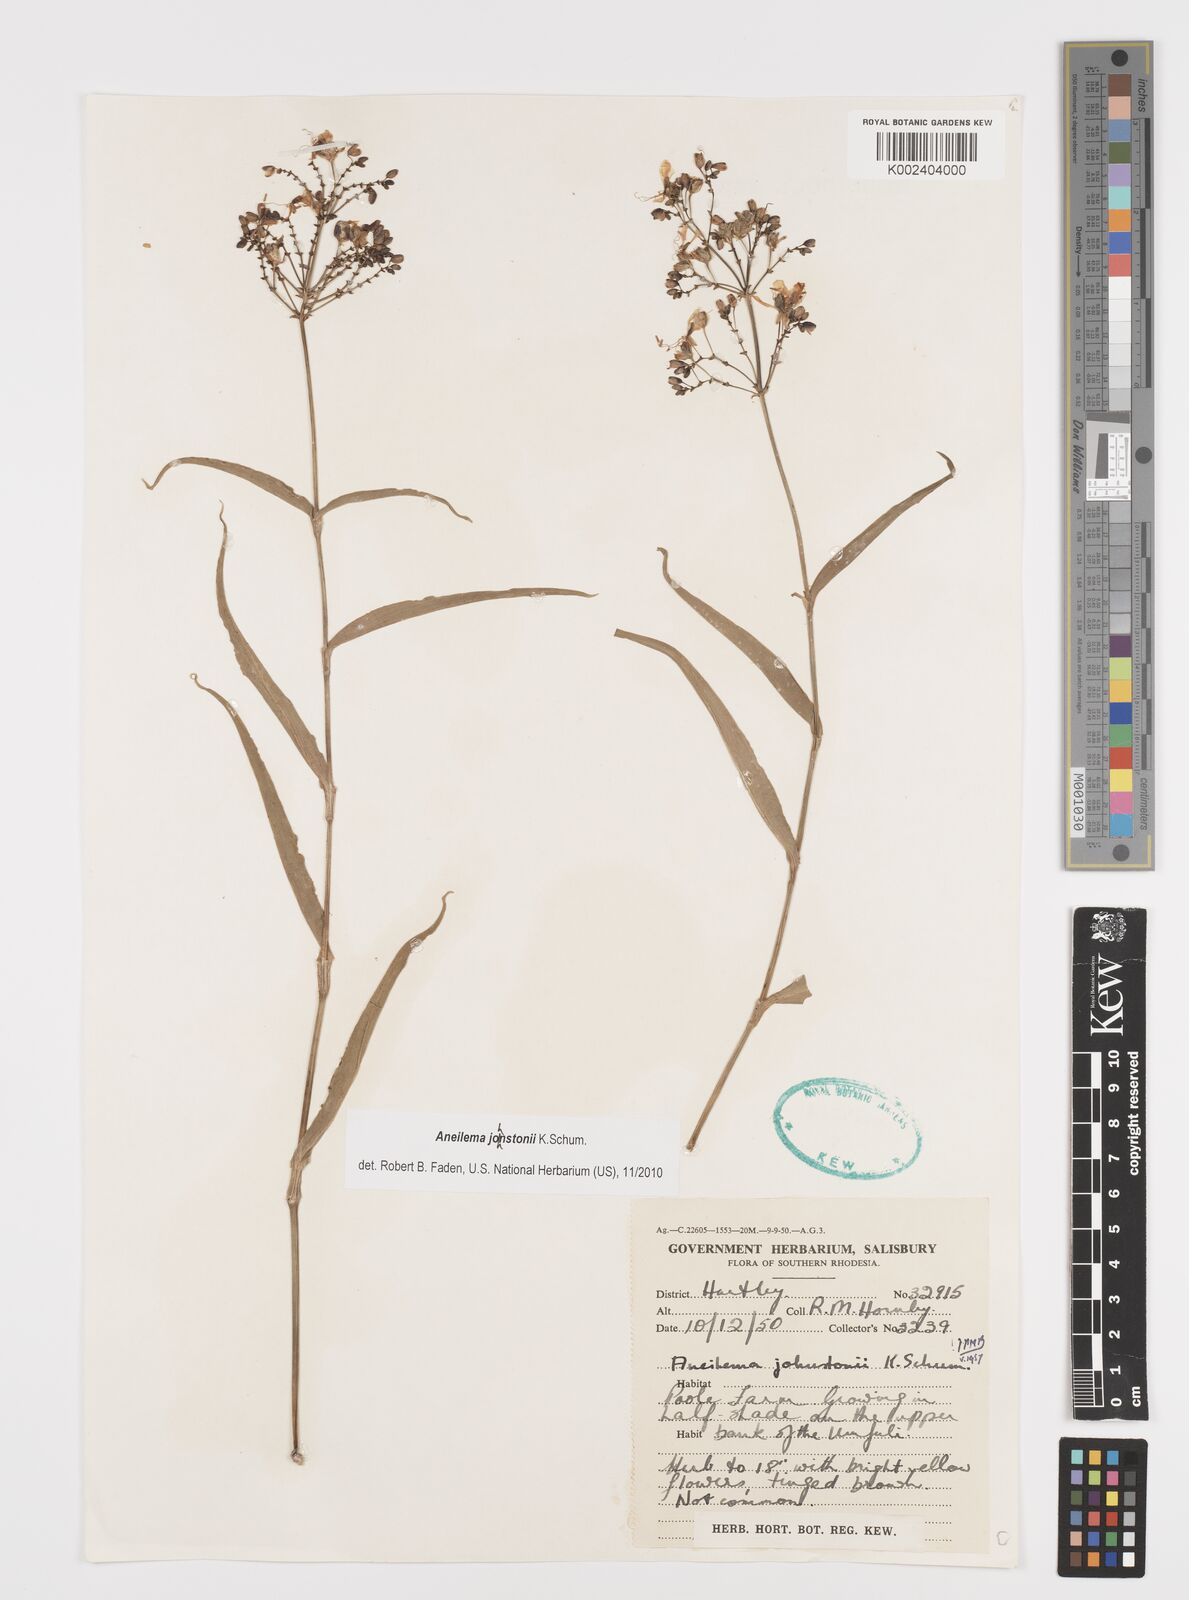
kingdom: Plantae
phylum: Tracheophyta
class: Liliopsida
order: Commelinales
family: Commelinaceae
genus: Aneilema
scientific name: Aneilema johnstonii
